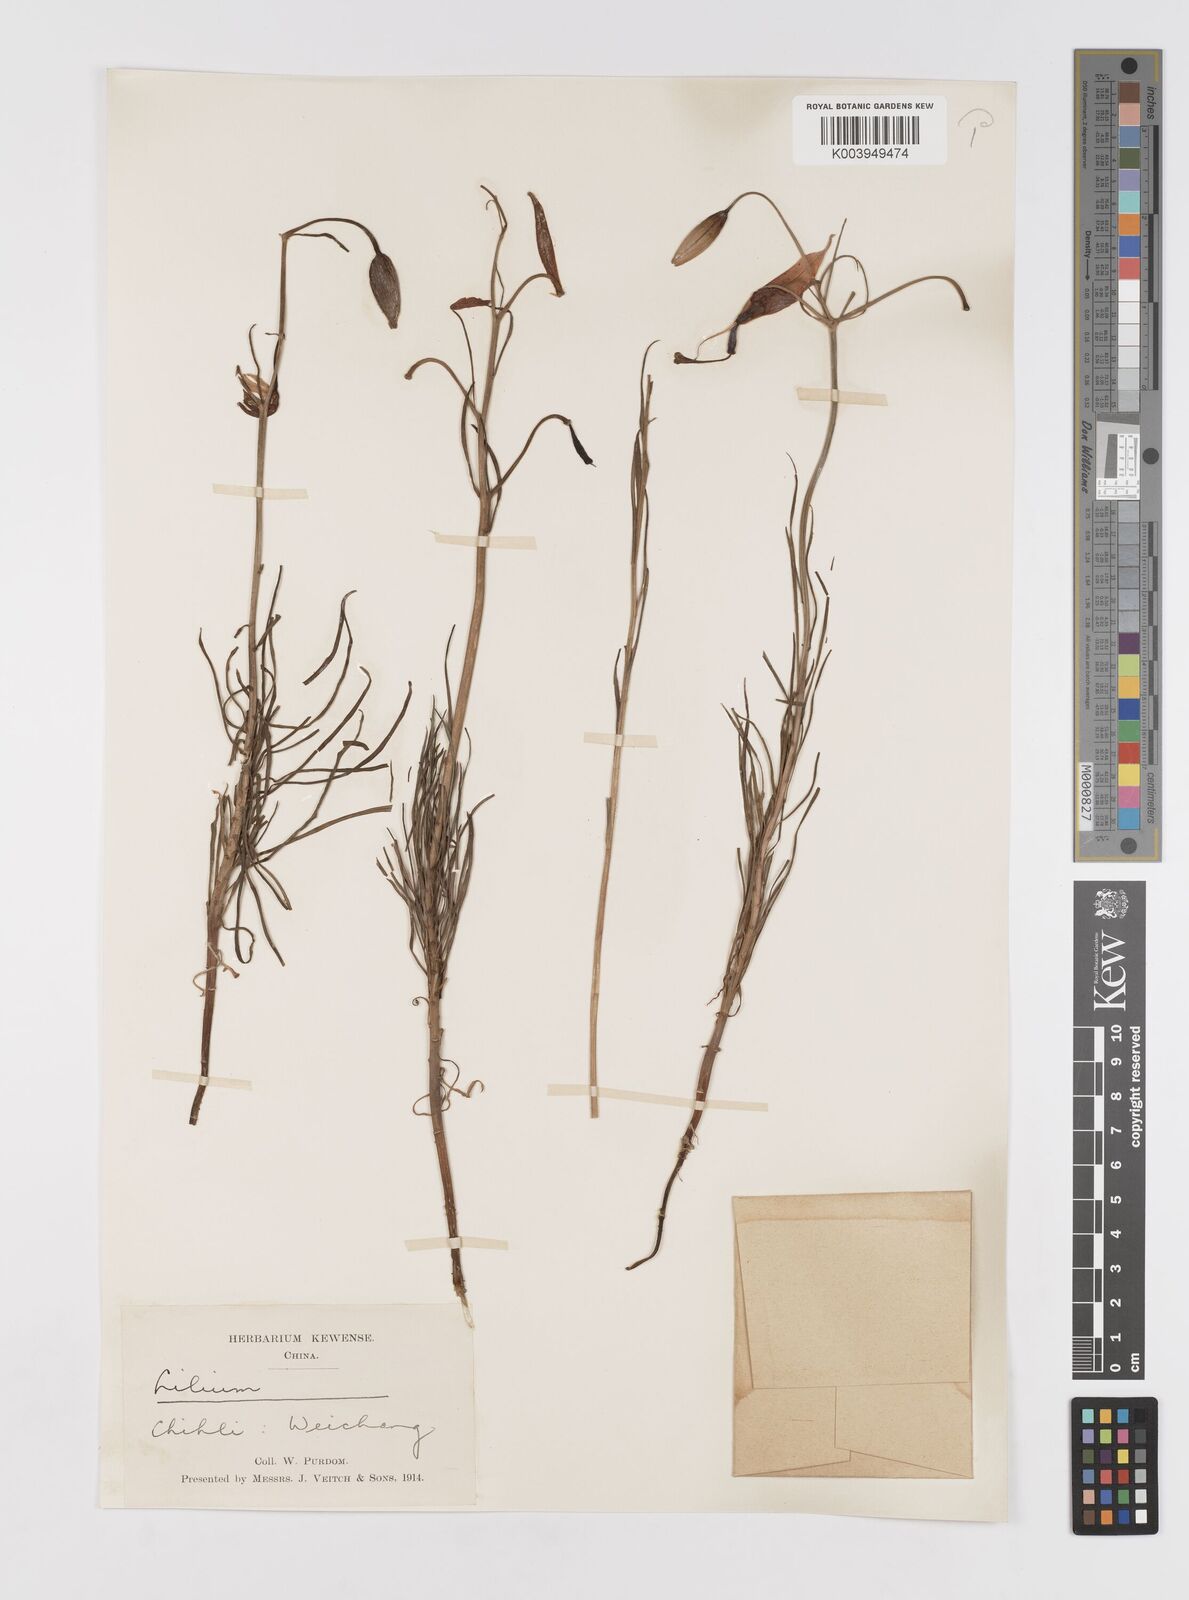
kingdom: Plantae
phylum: Tracheophyta
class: Liliopsida
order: Liliales
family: Liliaceae
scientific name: Liliaceae
